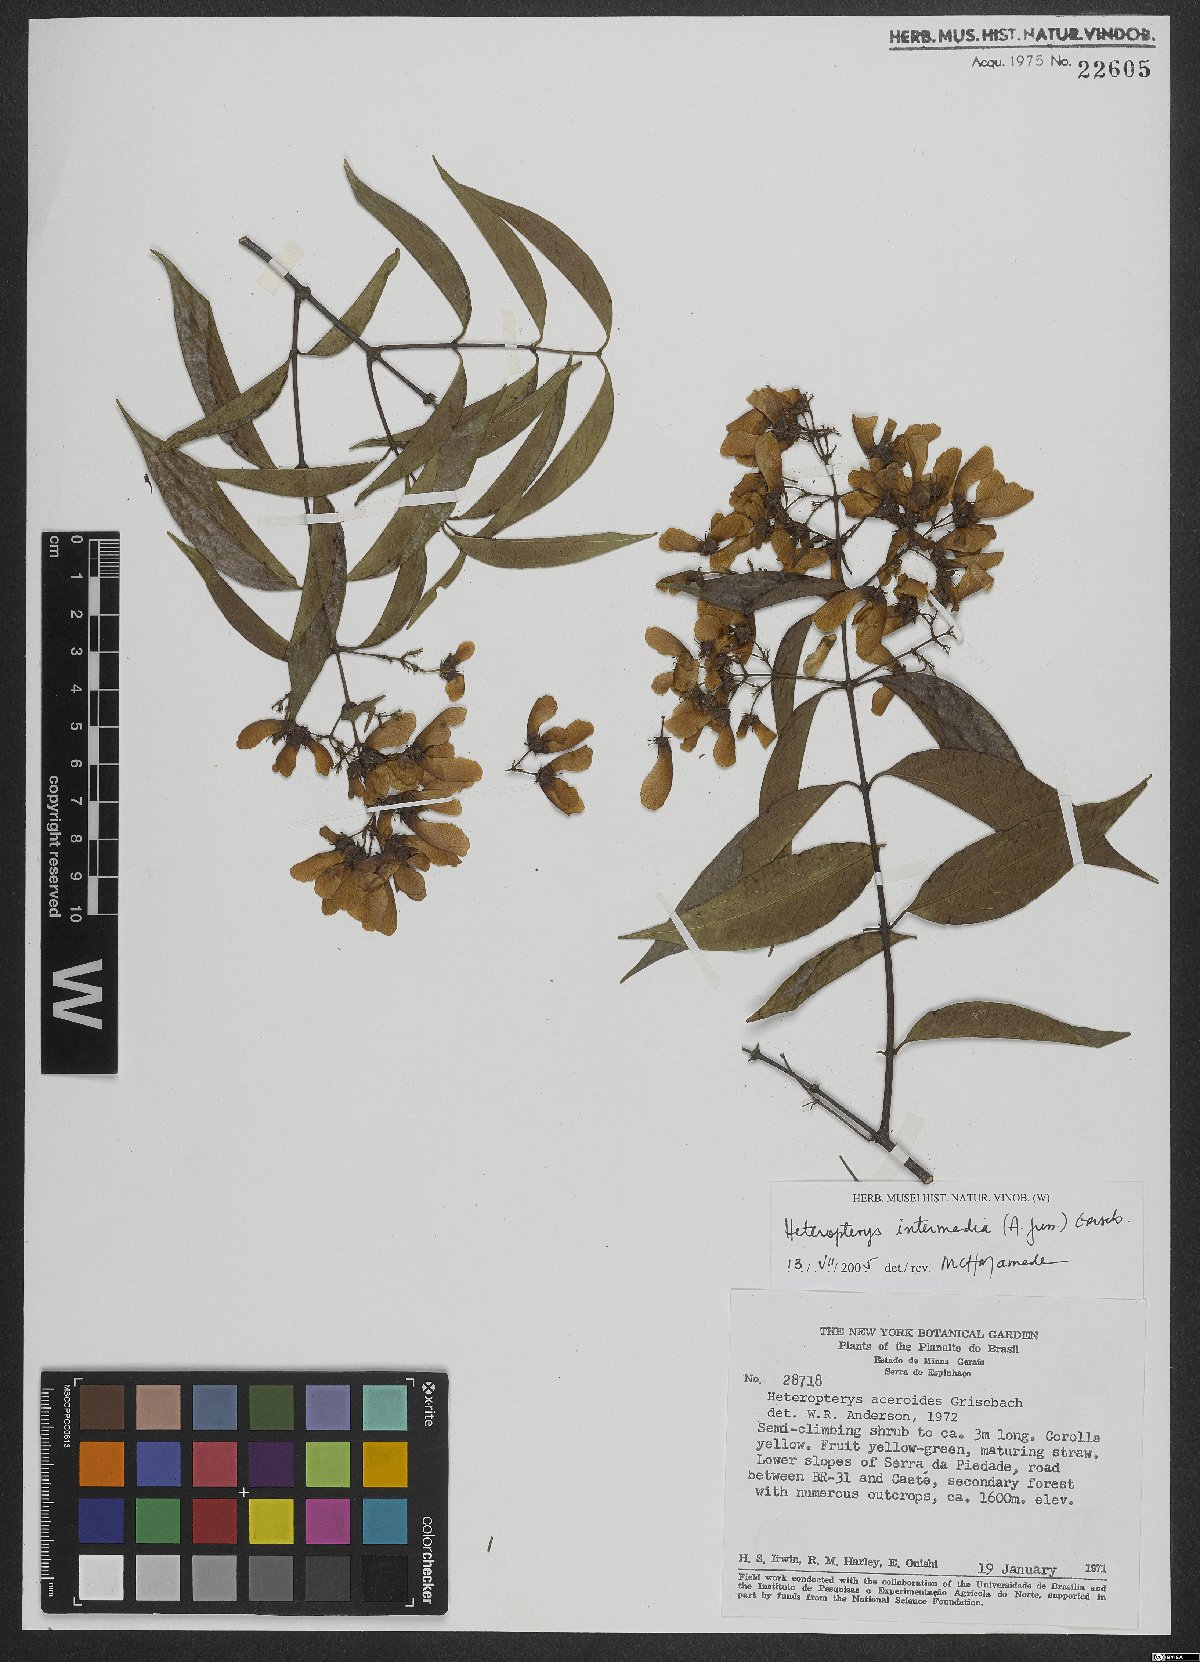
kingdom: Plantae
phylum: Tracheophyta
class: Magnoliopsida
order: Malpighiales
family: Malpighiaceae
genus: Heteropterys
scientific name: Heteropterys intermedia
